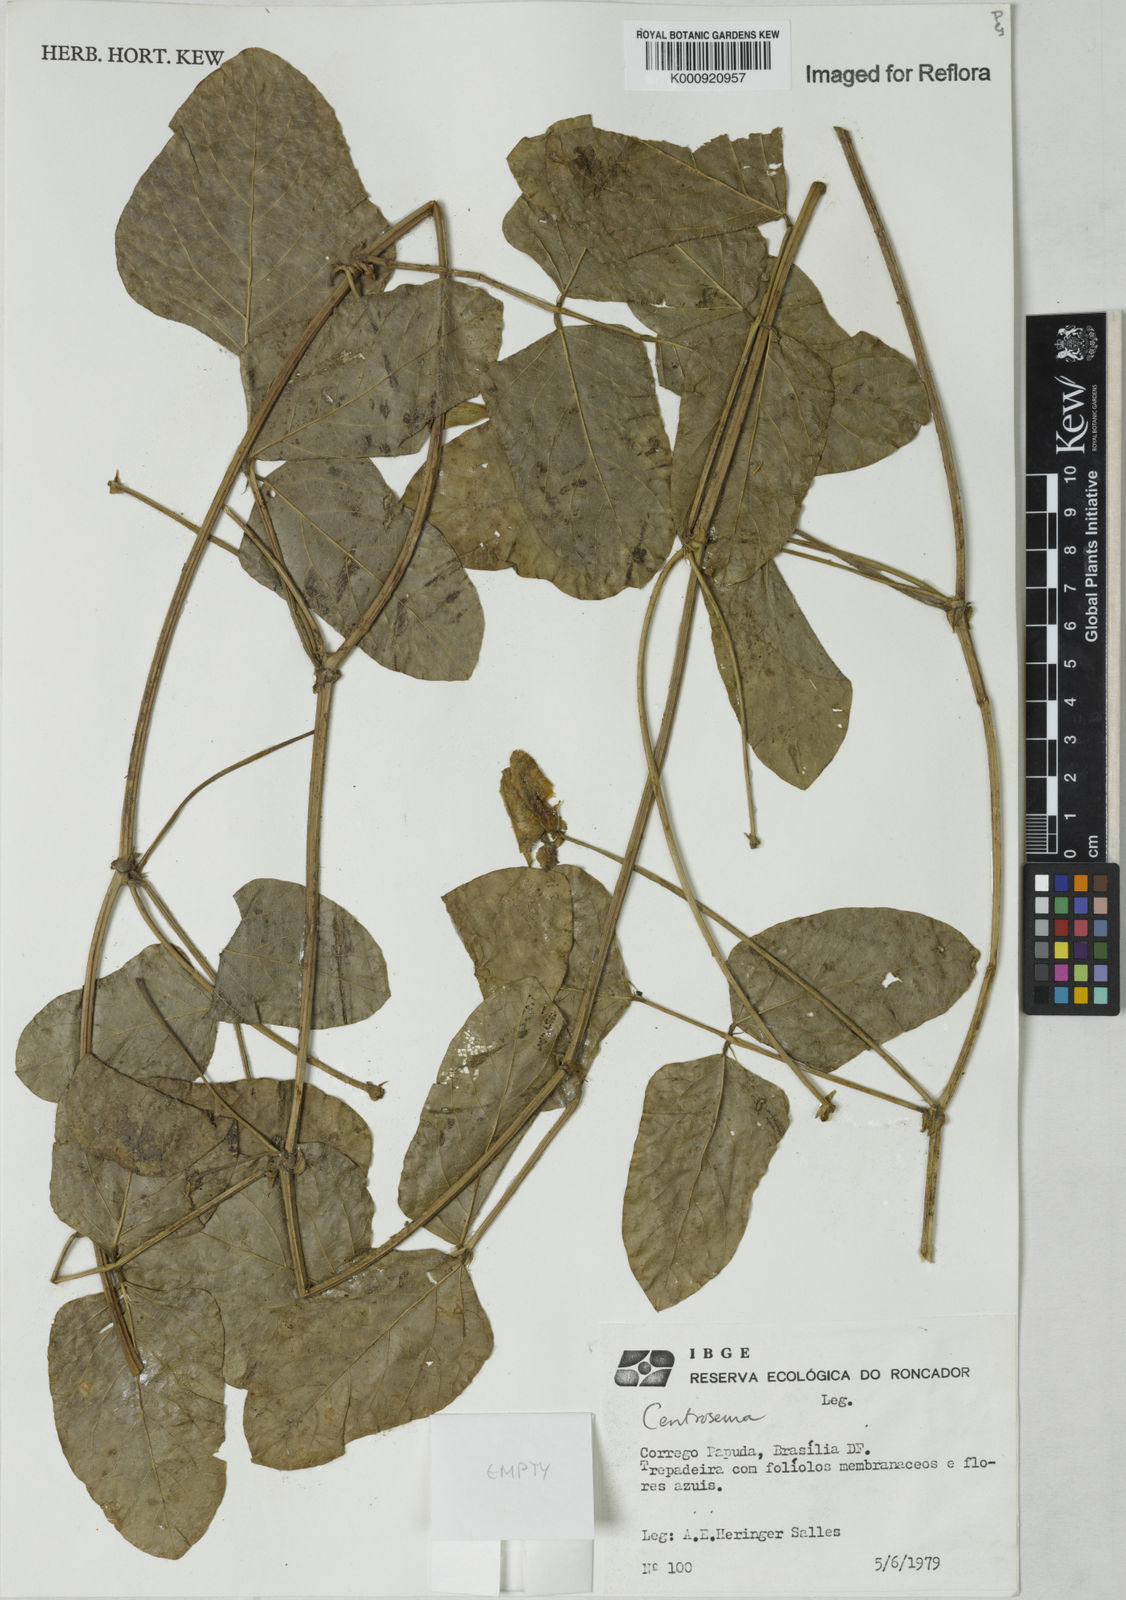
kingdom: Plantae
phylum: Tracheophyta
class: Magnoliopsida
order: Fabales
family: Fabaceae
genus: Centrosema
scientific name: Centrosema
